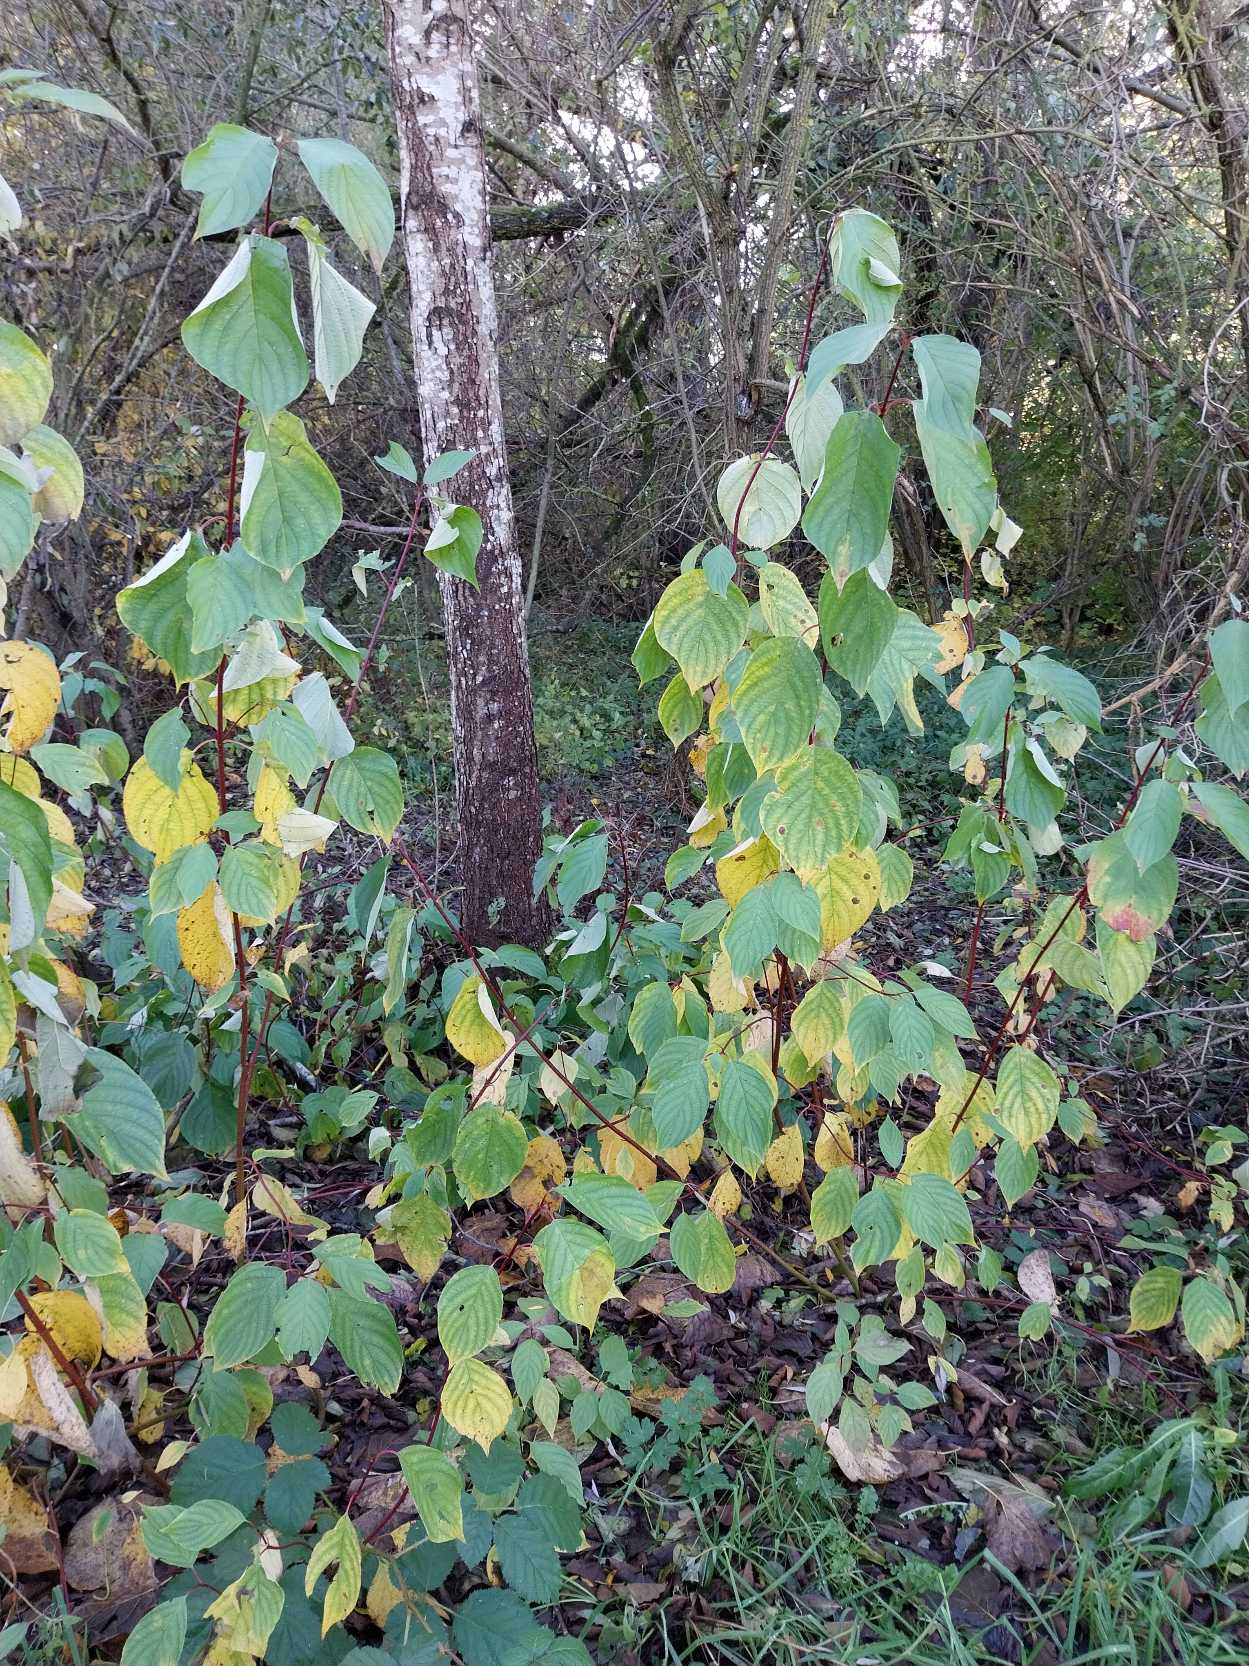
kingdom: Plantae
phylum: Tracheophyta
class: Magnoliopsida
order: Cornales
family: Cornaceae
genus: Cornus
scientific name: Cornus sericea
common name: Krybende kornel
